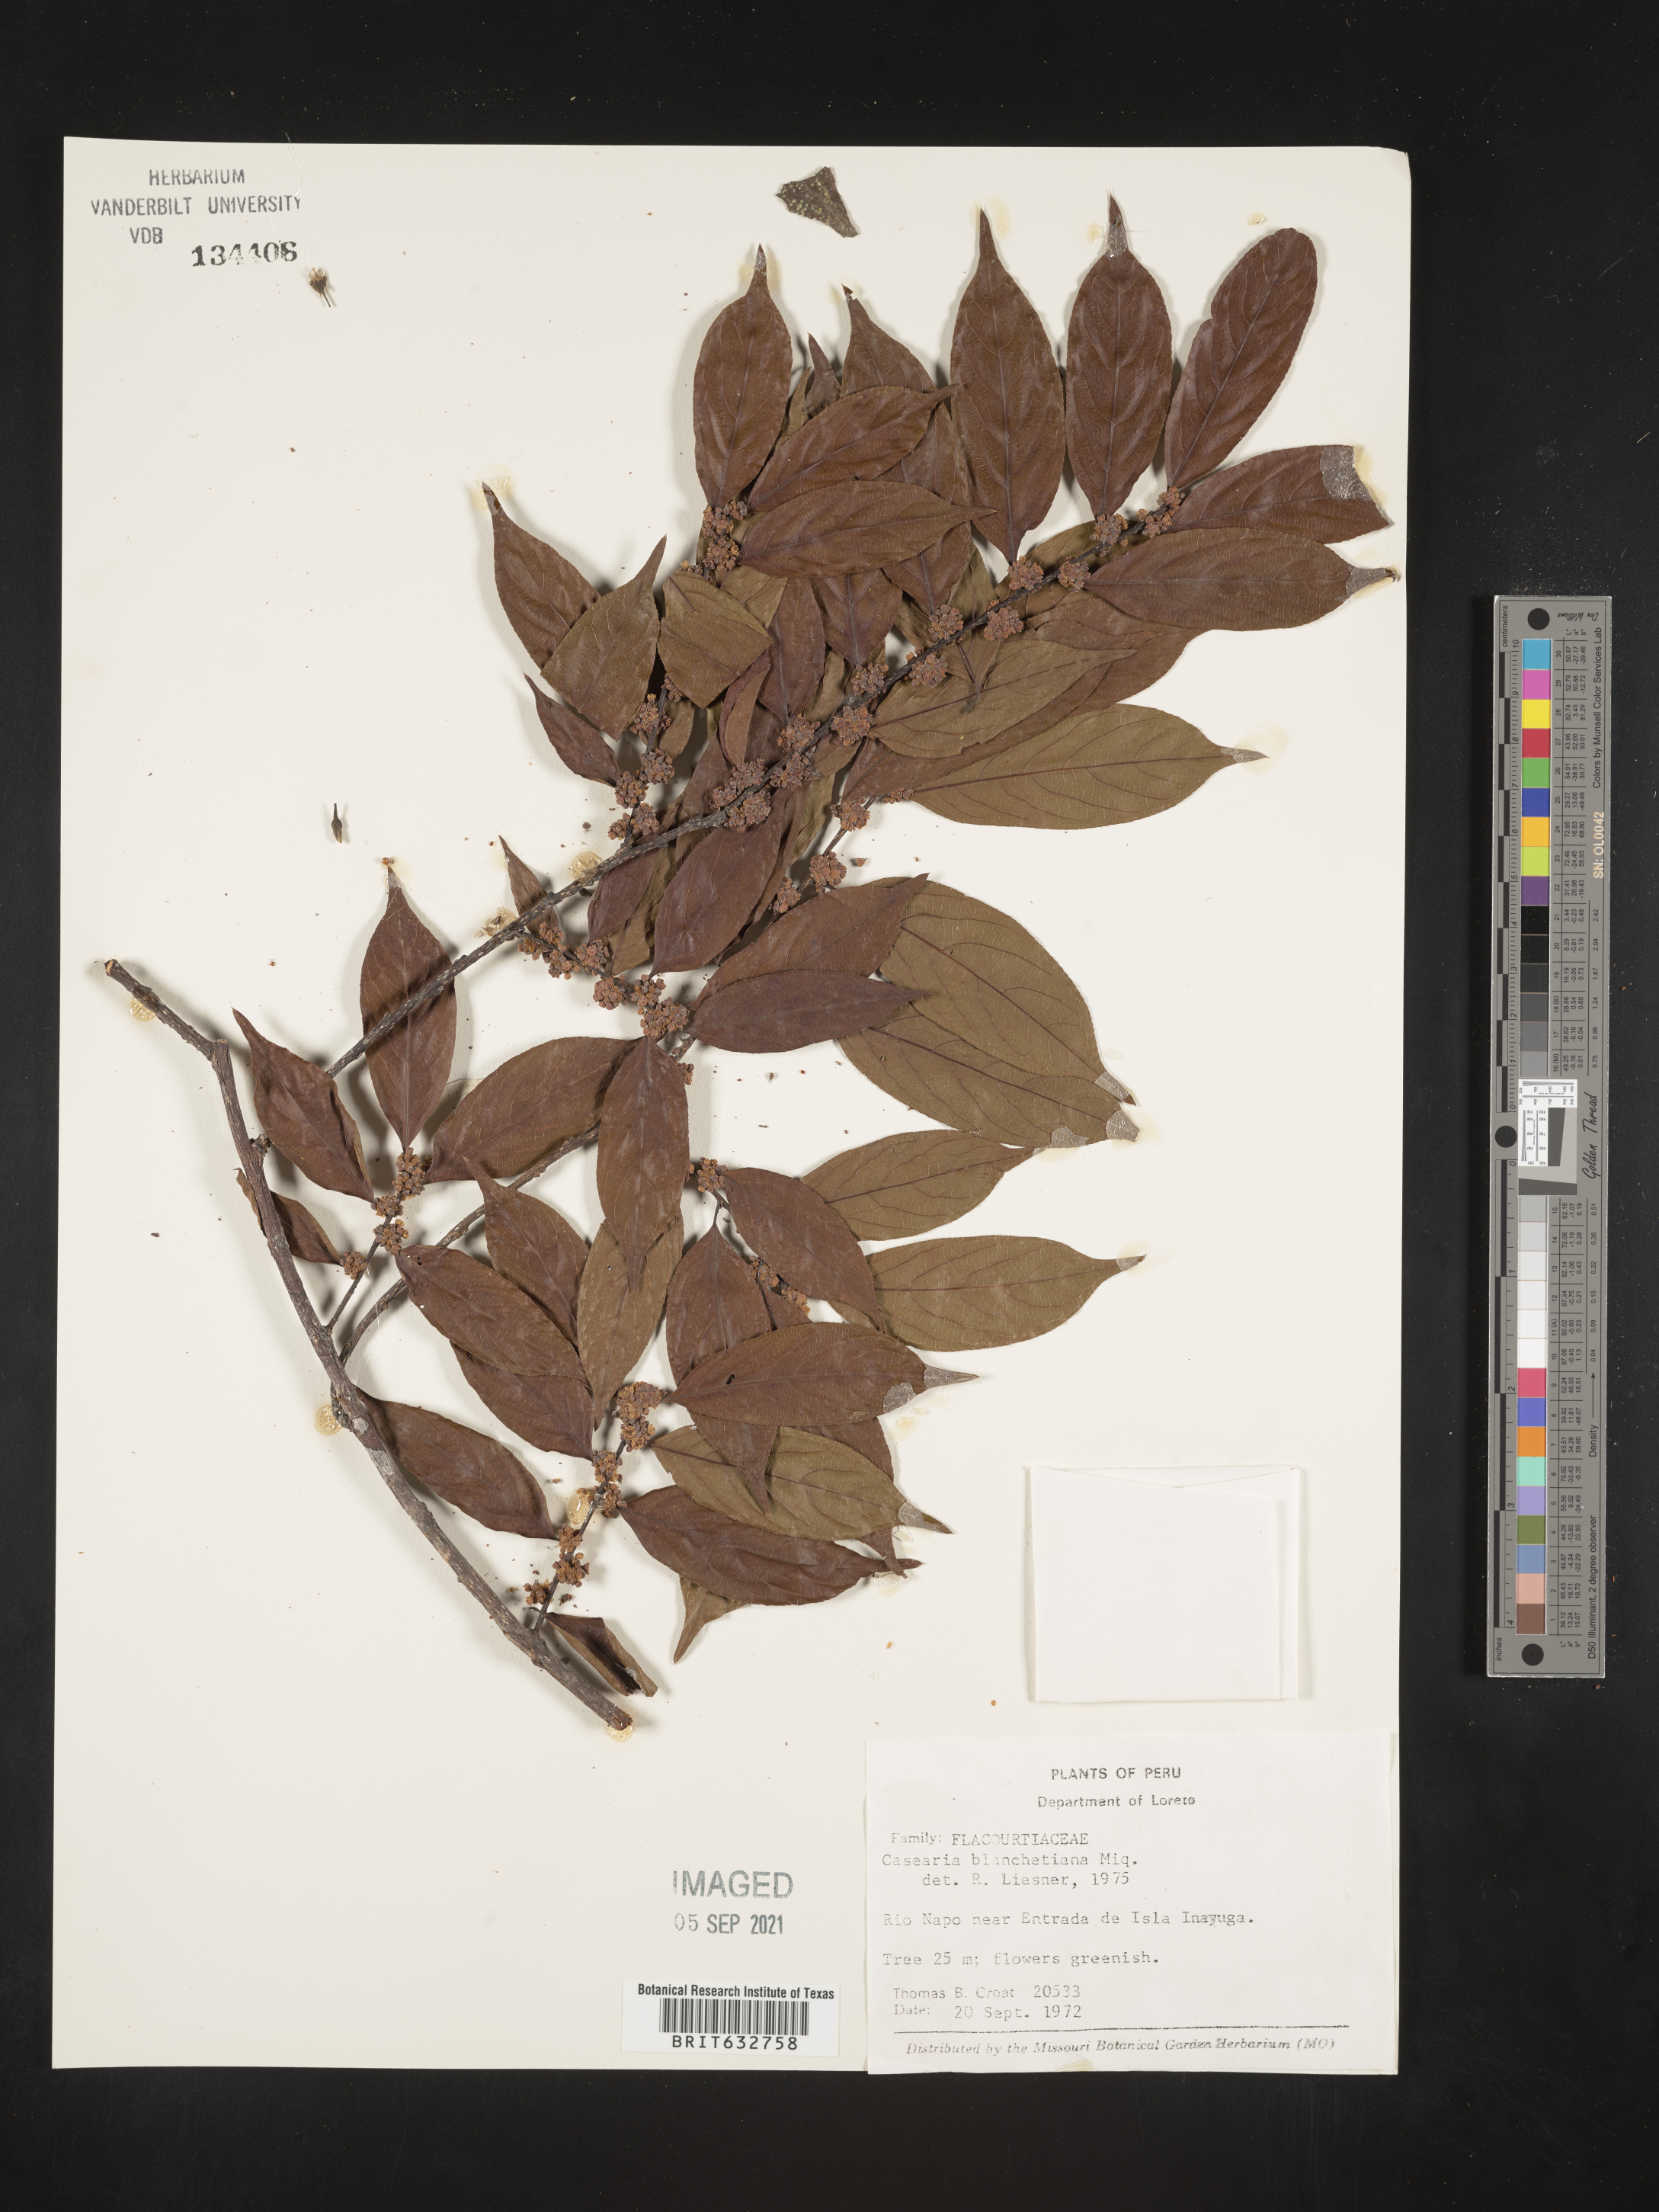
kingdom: Plantae
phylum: Tracheophyta
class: Magnoliopsida
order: Malpighiales
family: Salicaceae
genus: Casearia
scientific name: Casearia
